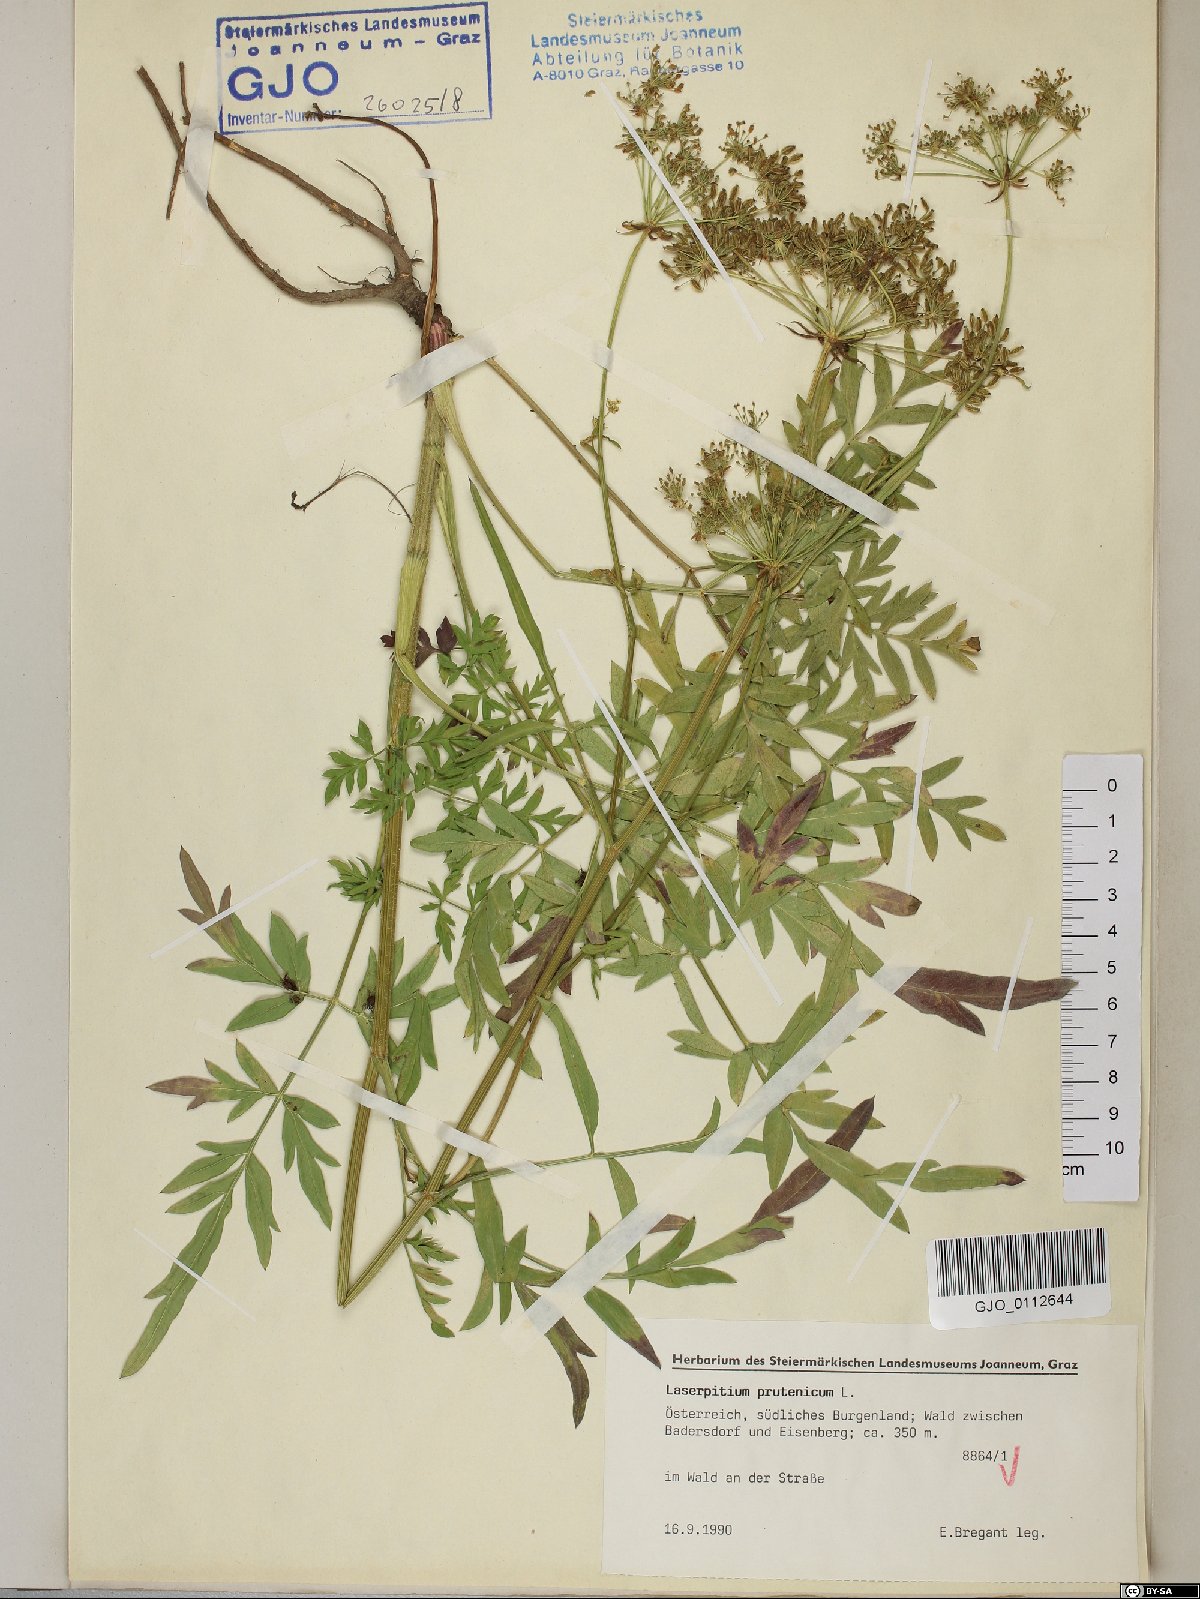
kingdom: Plantae
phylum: Tracheophyta
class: Magnoliopsida
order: Apiales
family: Apiaceae
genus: Silphiodaucus
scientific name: Silphiodaucus prutenicus
